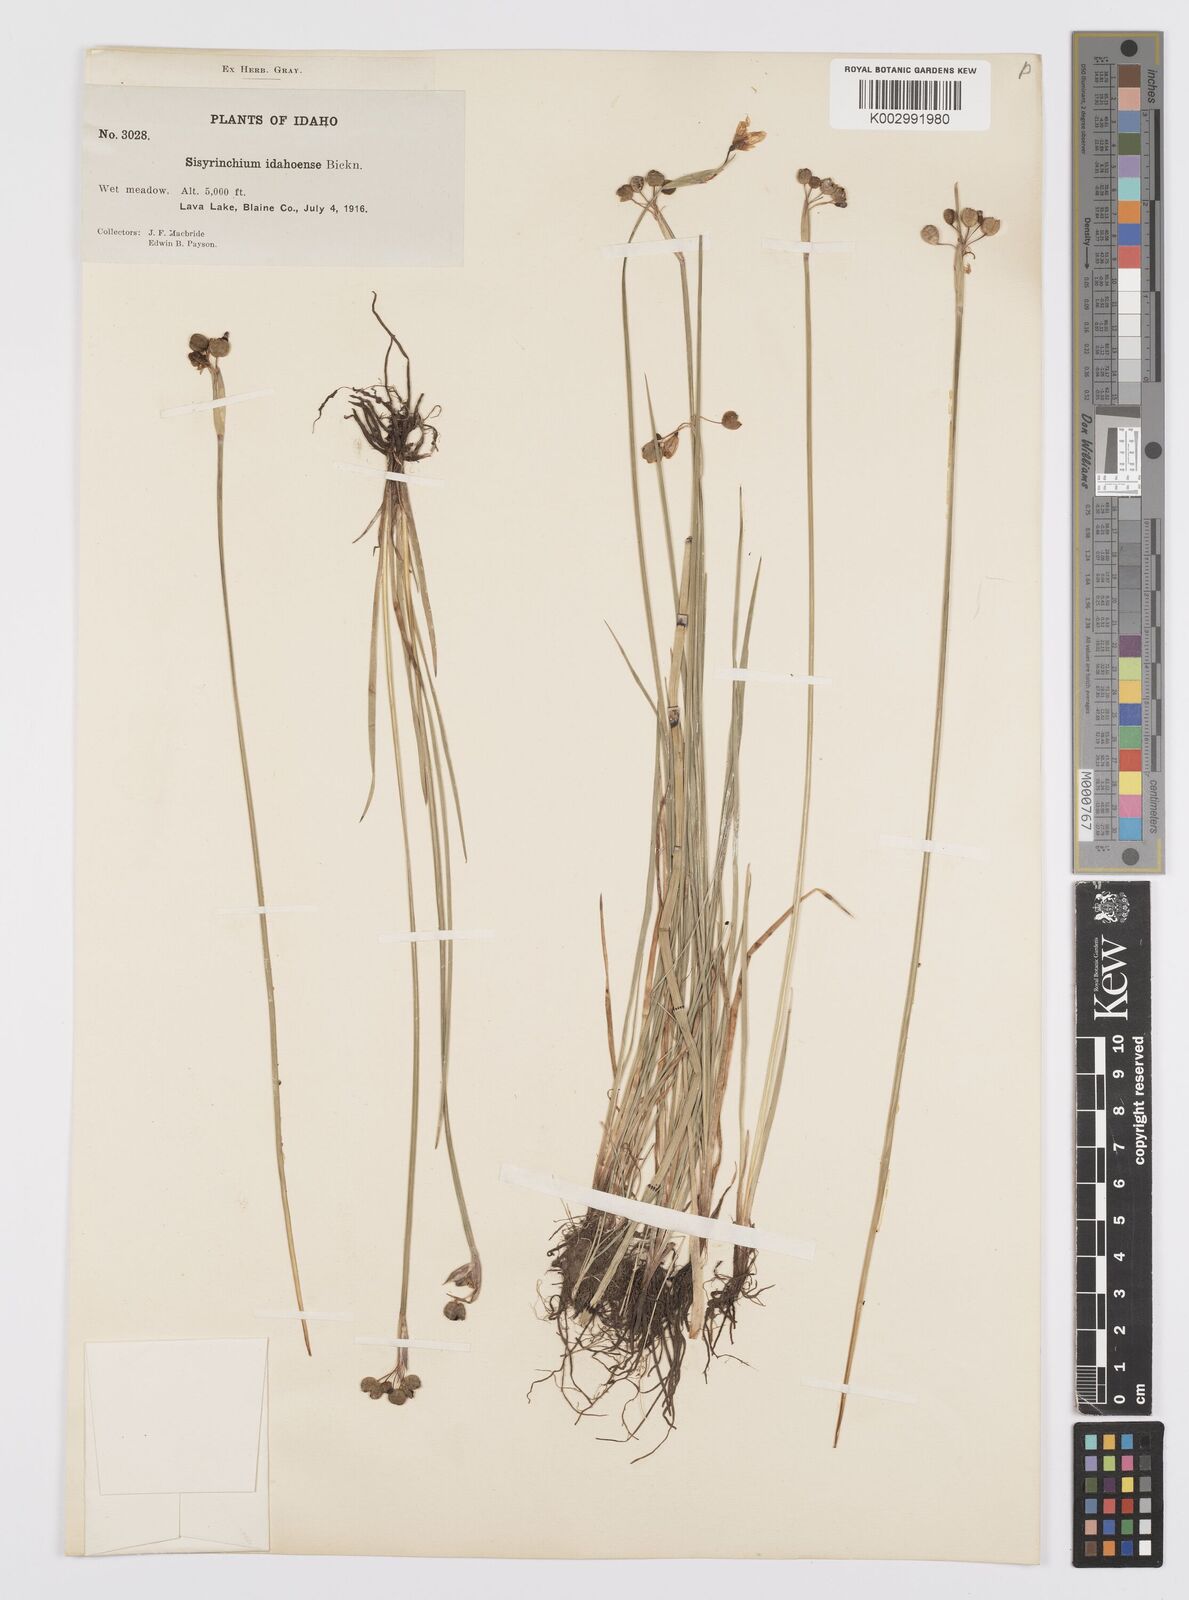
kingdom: Plantae
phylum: Tracheophyta
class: Liliopsida
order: Asparagales
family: Iridaceae
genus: Sisyrinchium
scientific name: Sisyrinchium idahoense
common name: Idaho blue-eyed-grass
